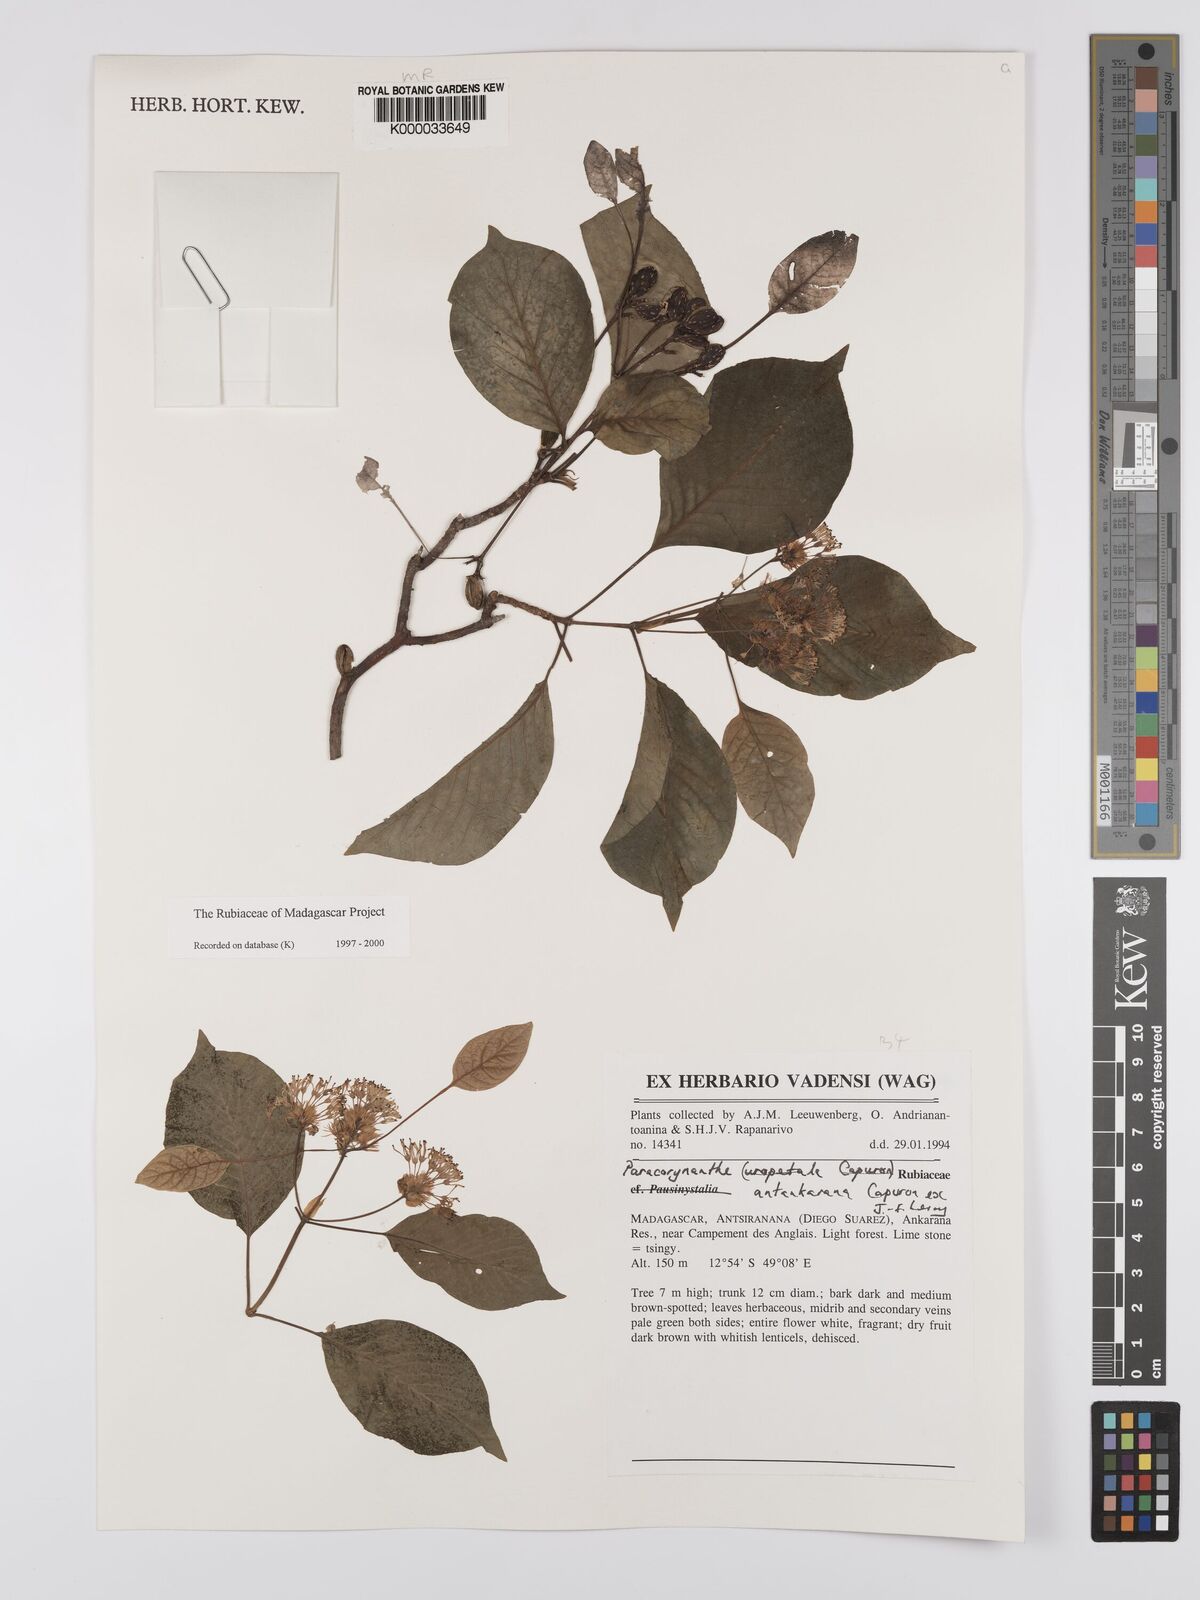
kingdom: Plantae
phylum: Tracheophyta
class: Magnoliopsida
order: Gentianales
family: Rubiaceae
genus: Paracorynanthe
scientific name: Paracorynanthe uropetala
